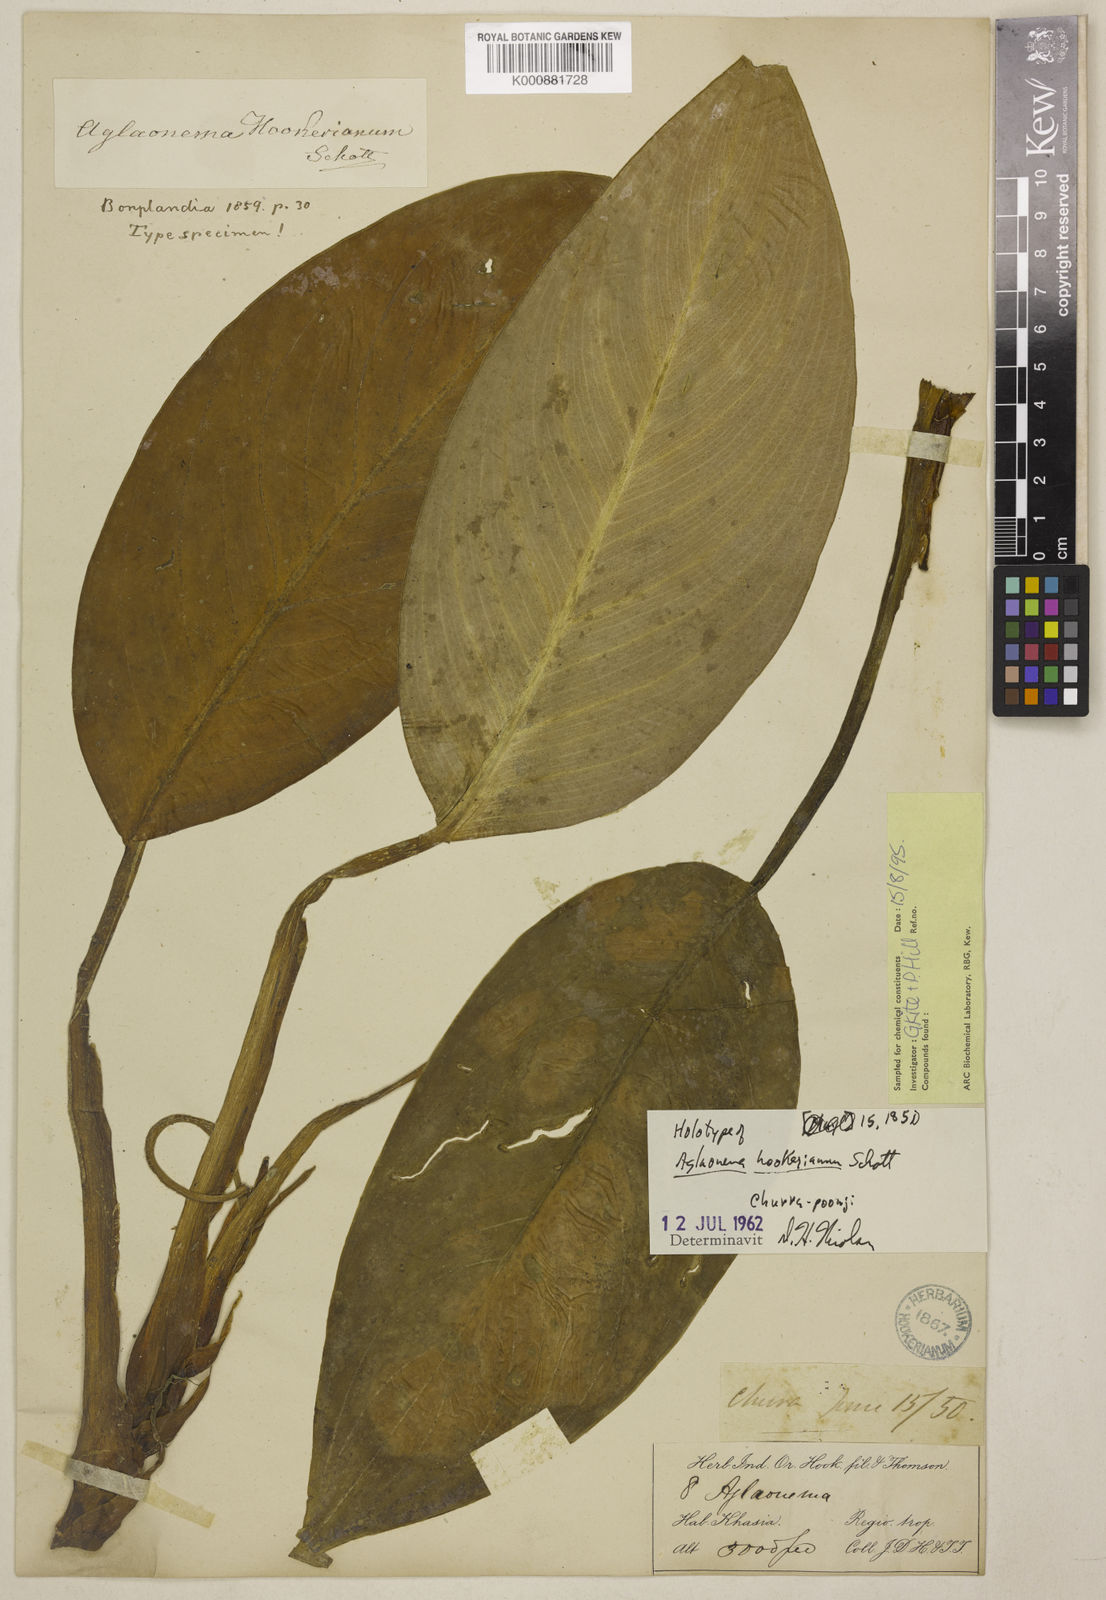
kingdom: Plantae
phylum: Tracheophyta
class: Liliopsida
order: Alismatales
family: Araceae
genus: Aglaonema
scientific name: Aglaonema hookerianum
